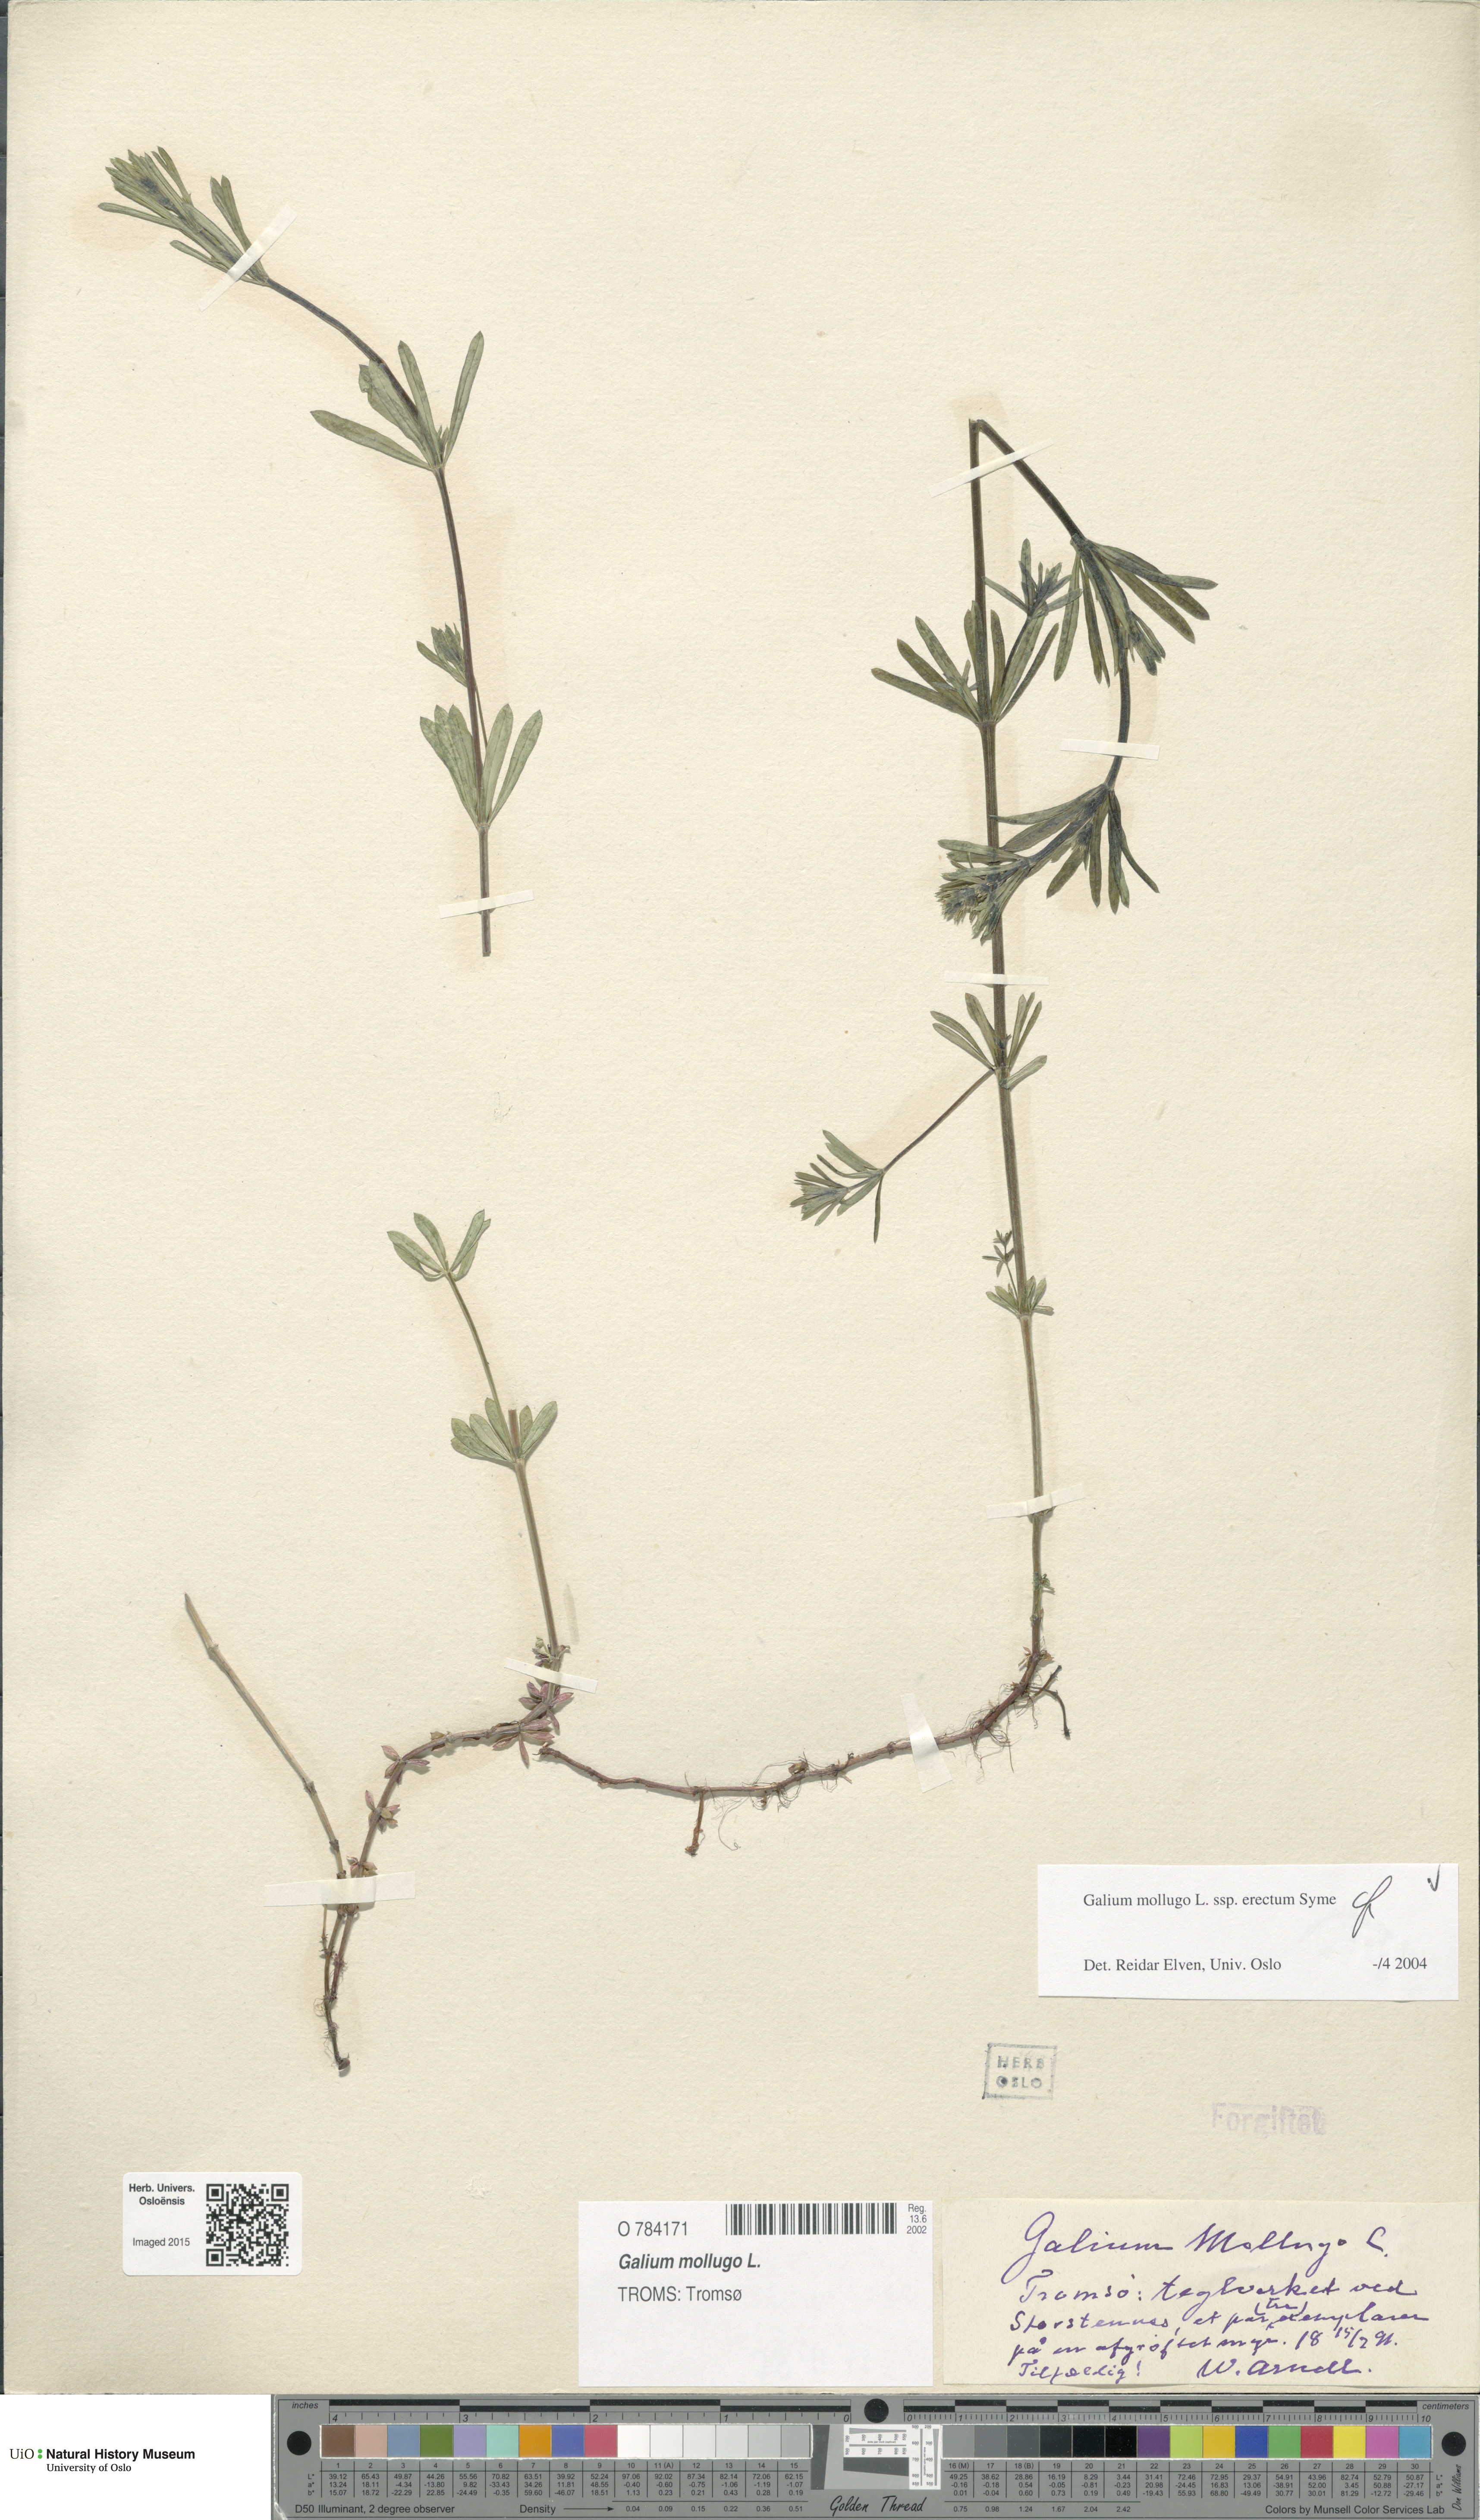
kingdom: Plantae
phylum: Tracheophyta
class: Magnoliopsida
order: Gentianales
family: Rubiaceae
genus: Galium
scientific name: Galium album
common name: White bedstraw
